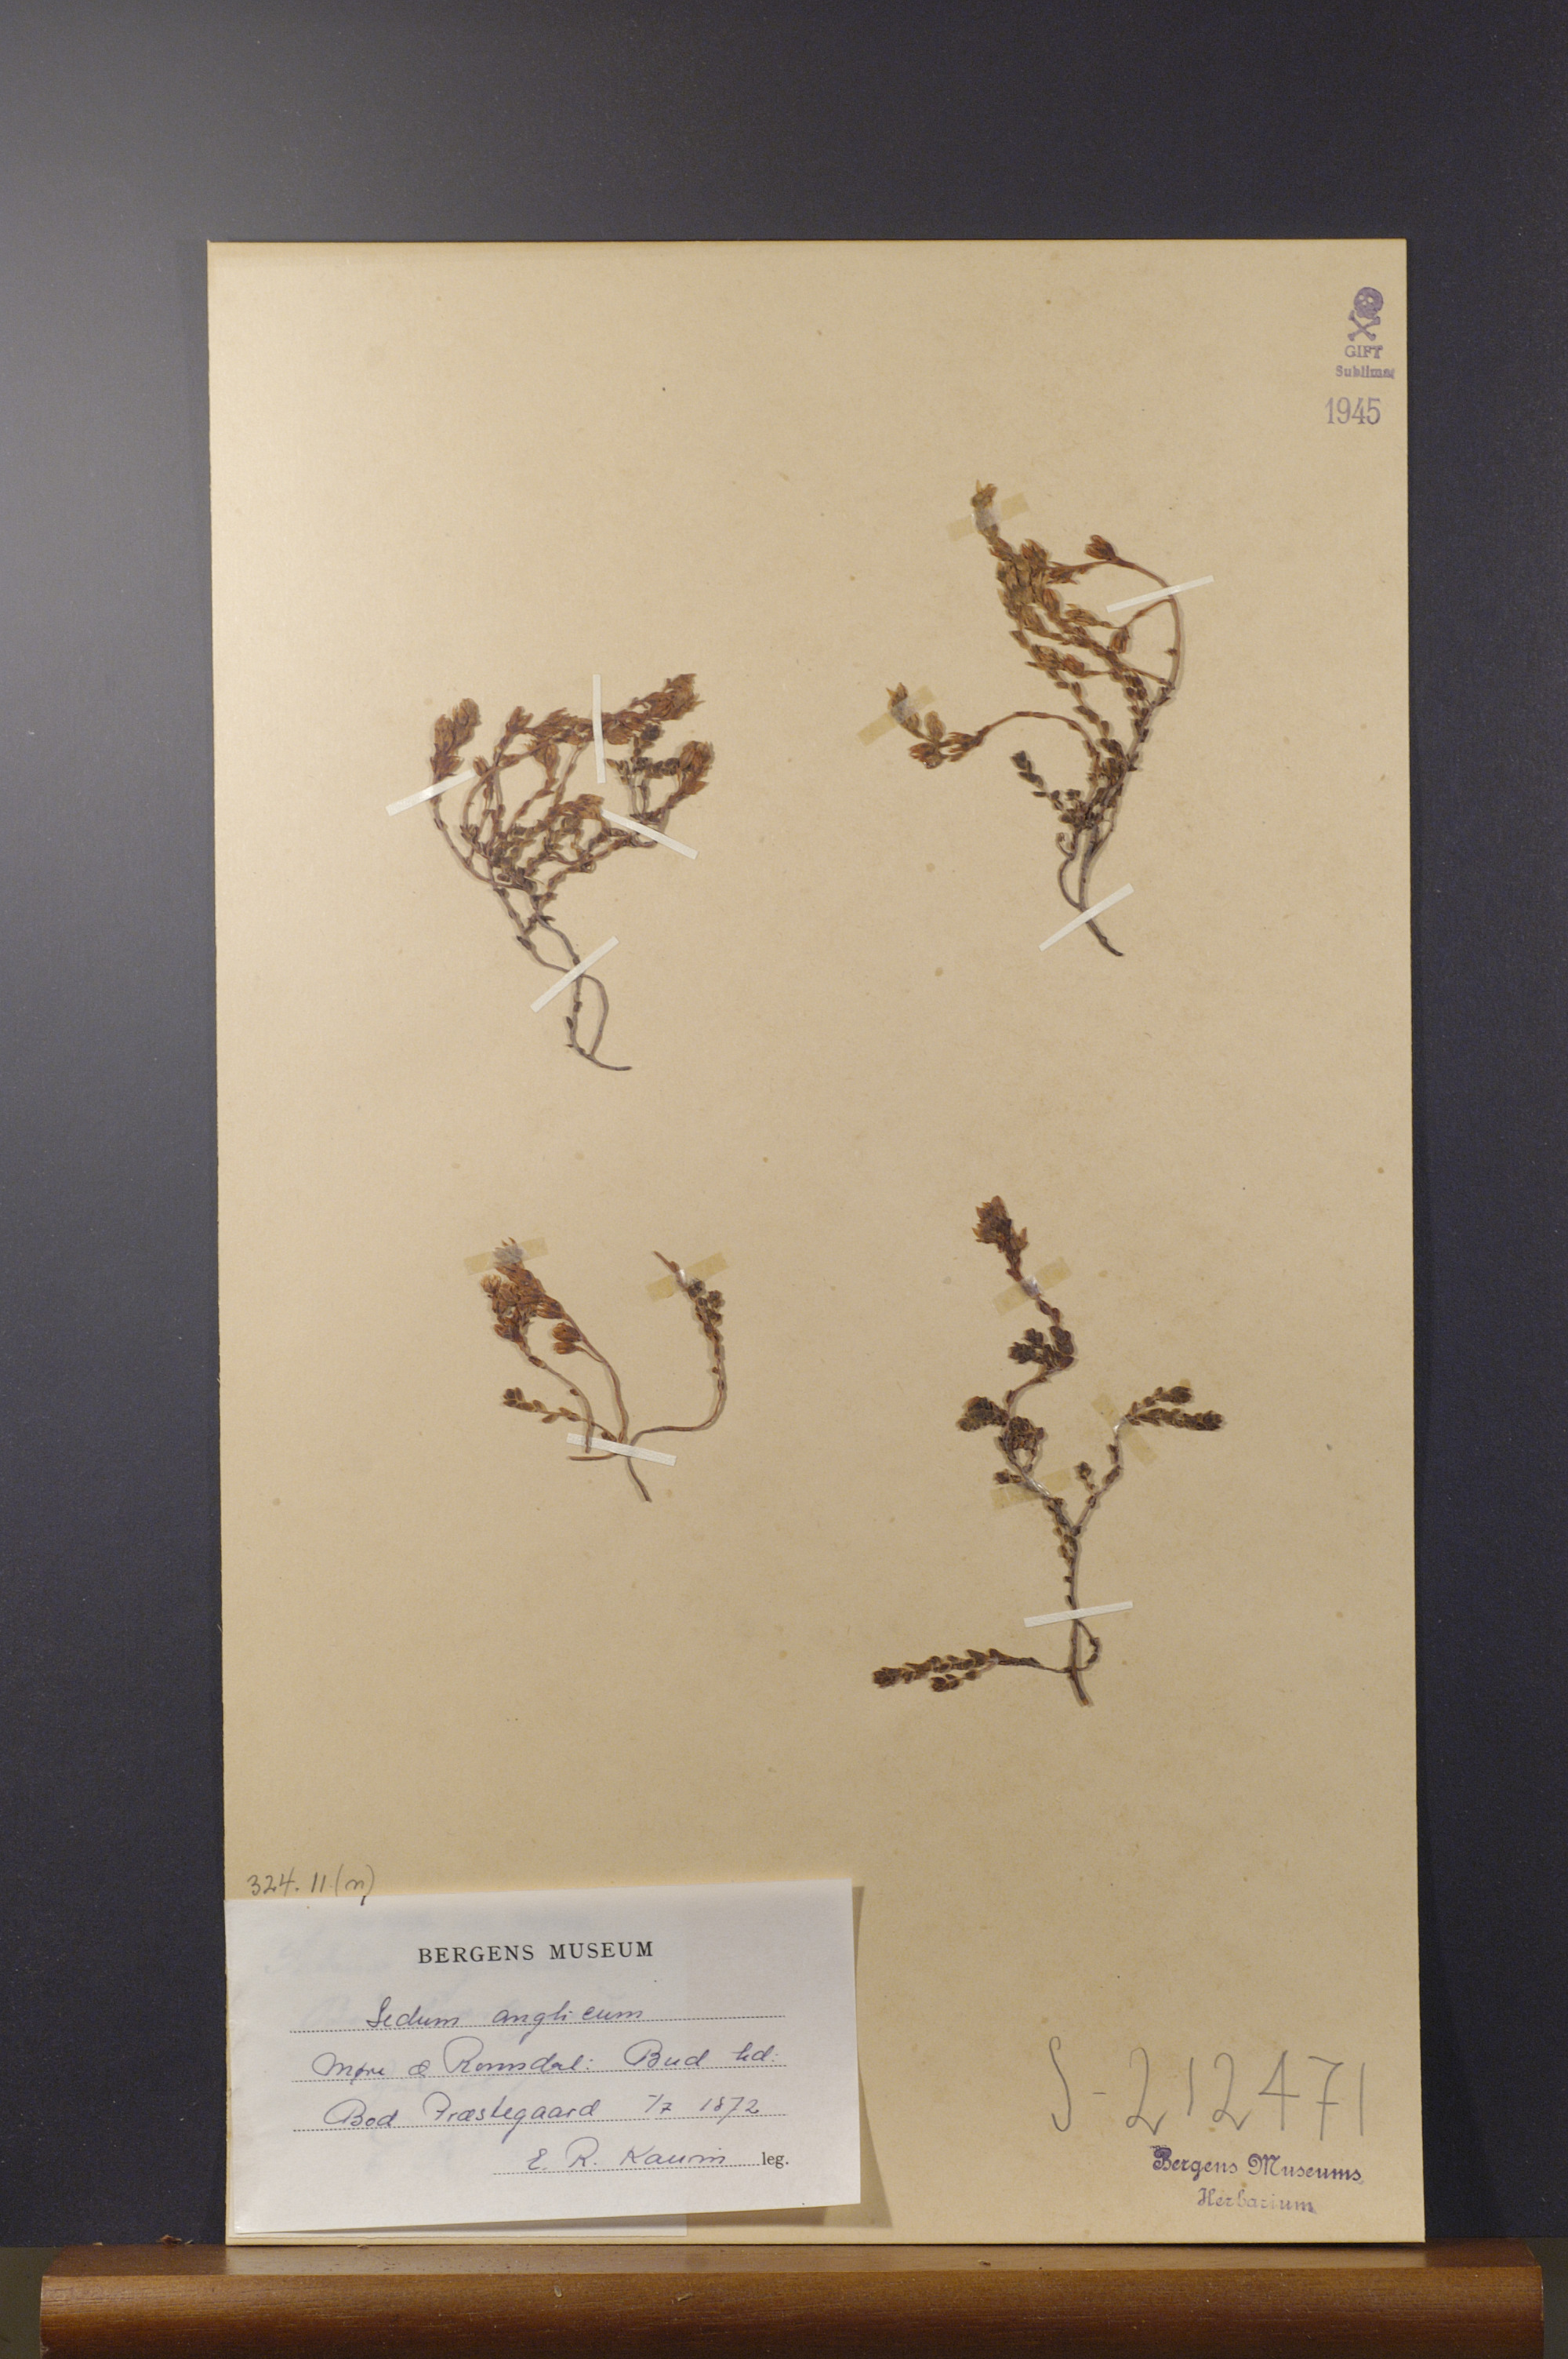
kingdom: Plantae
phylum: Tracheophyta
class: Magnoliopsida
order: Saxifragales
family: Crassulaceae
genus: Sedum
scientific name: Sedum anglicum
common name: English stonecrop
